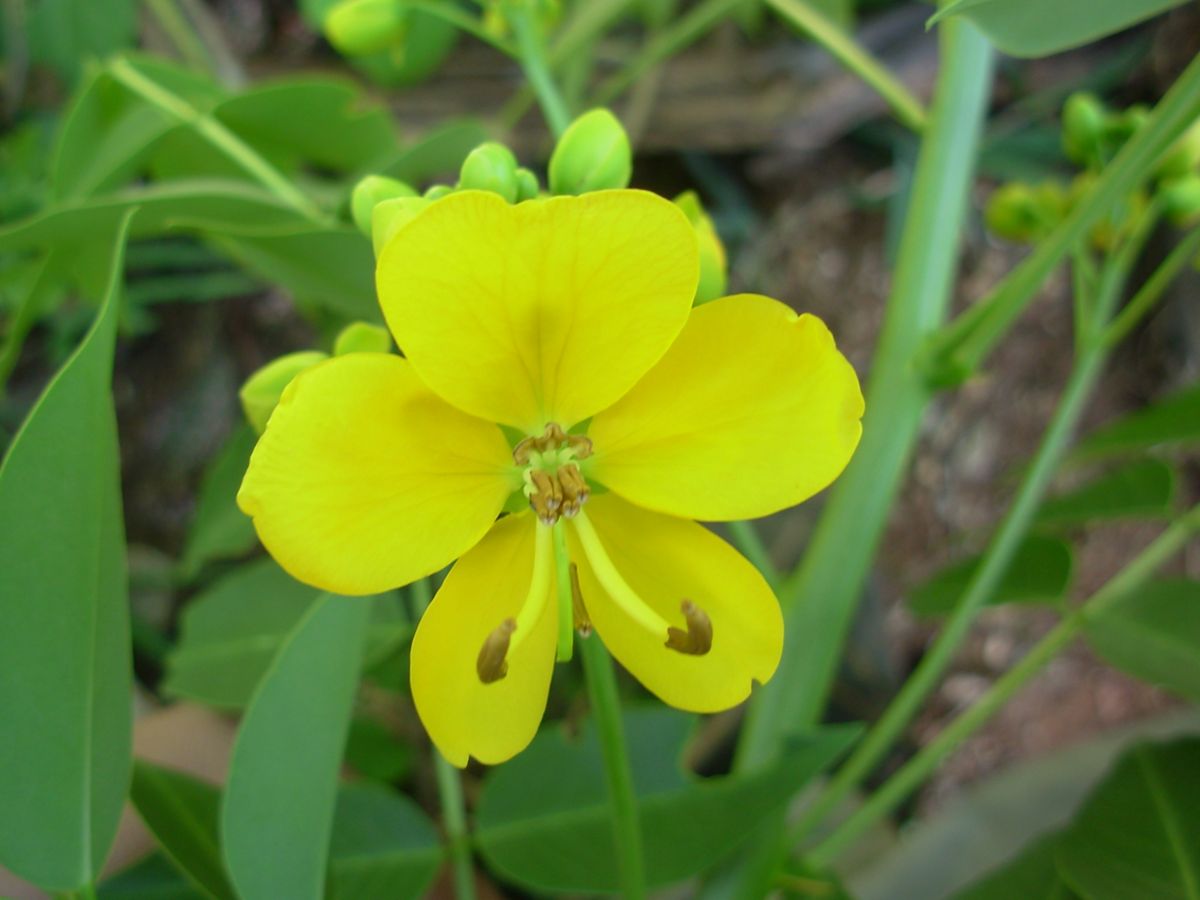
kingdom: Plantae
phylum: Tracheophyta
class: Magnoliopsida
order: Fabales
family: Fabaceae
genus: Senna
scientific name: Senna septemtrionalis
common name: Arsenic bush
